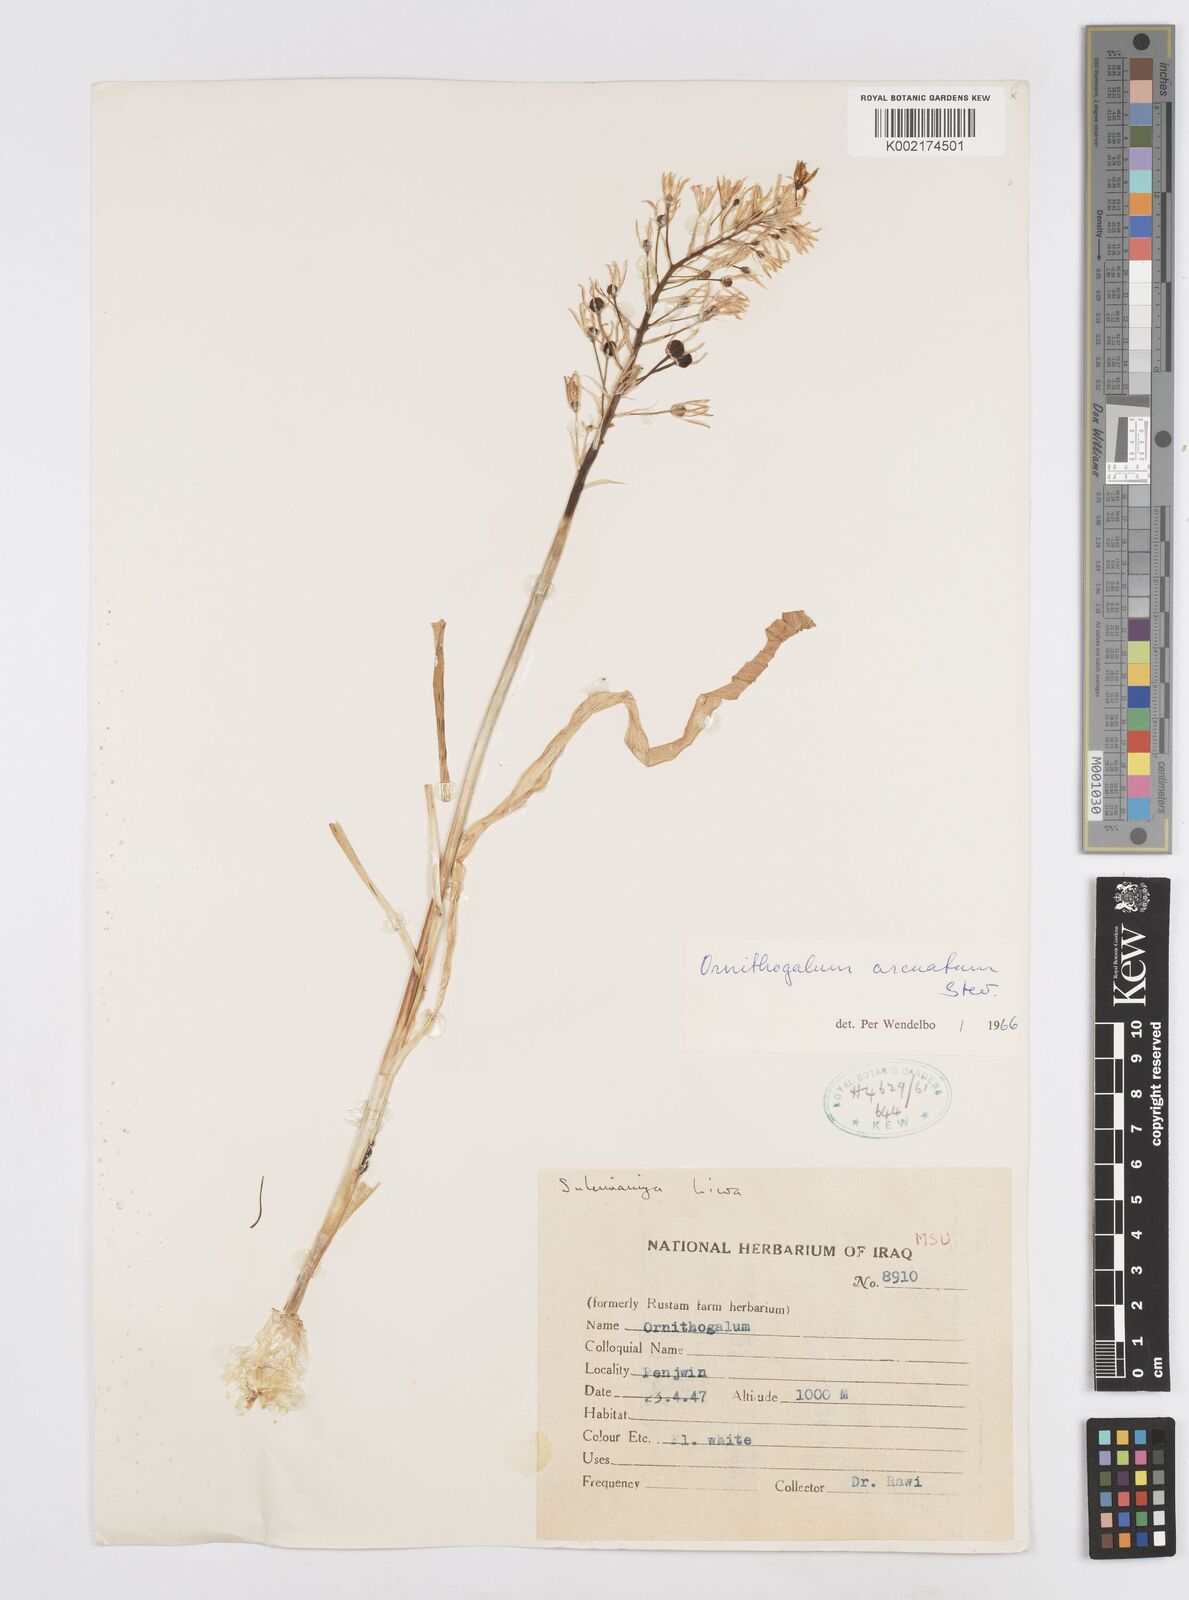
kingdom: Plantae
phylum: Tracheophyta
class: Liliopsida
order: Asparagales
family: Asparagaceae
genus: Ornithogalum
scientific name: Ornithogalum arcuatum
